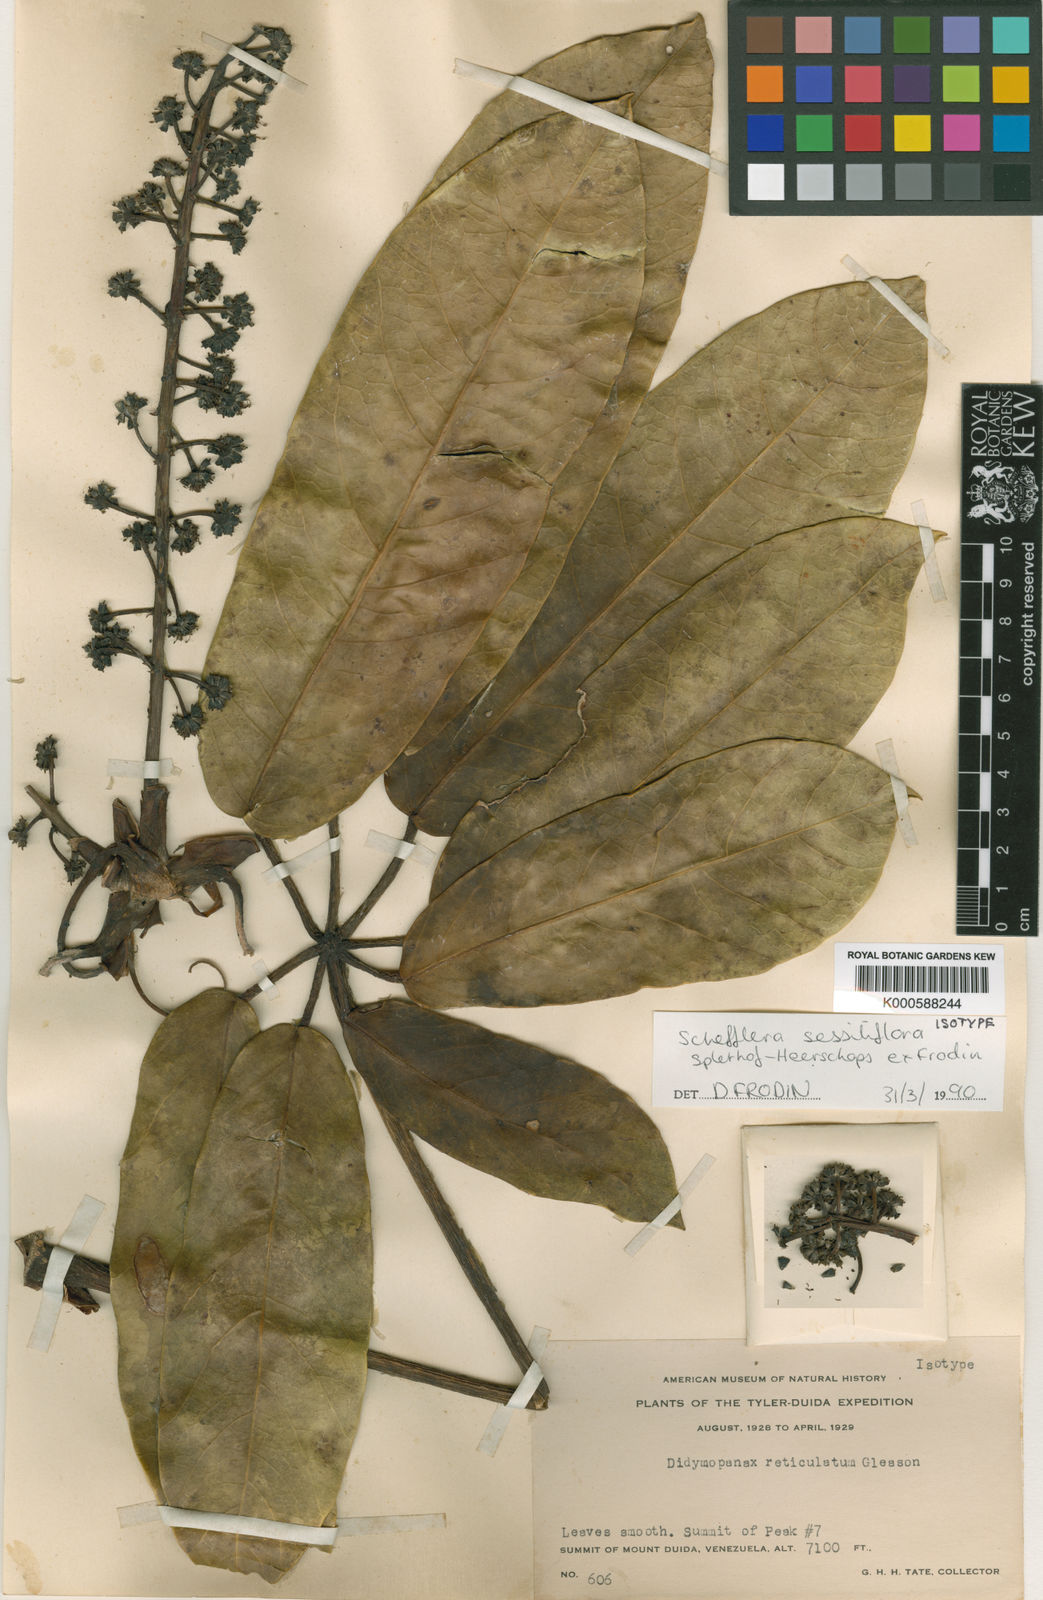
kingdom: Plantae
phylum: Tracheophyta
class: Magnoliopsida
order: Apiales
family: Araliaceae
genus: Sciodaphyllum
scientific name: Sciodaphyllum reticulatum
